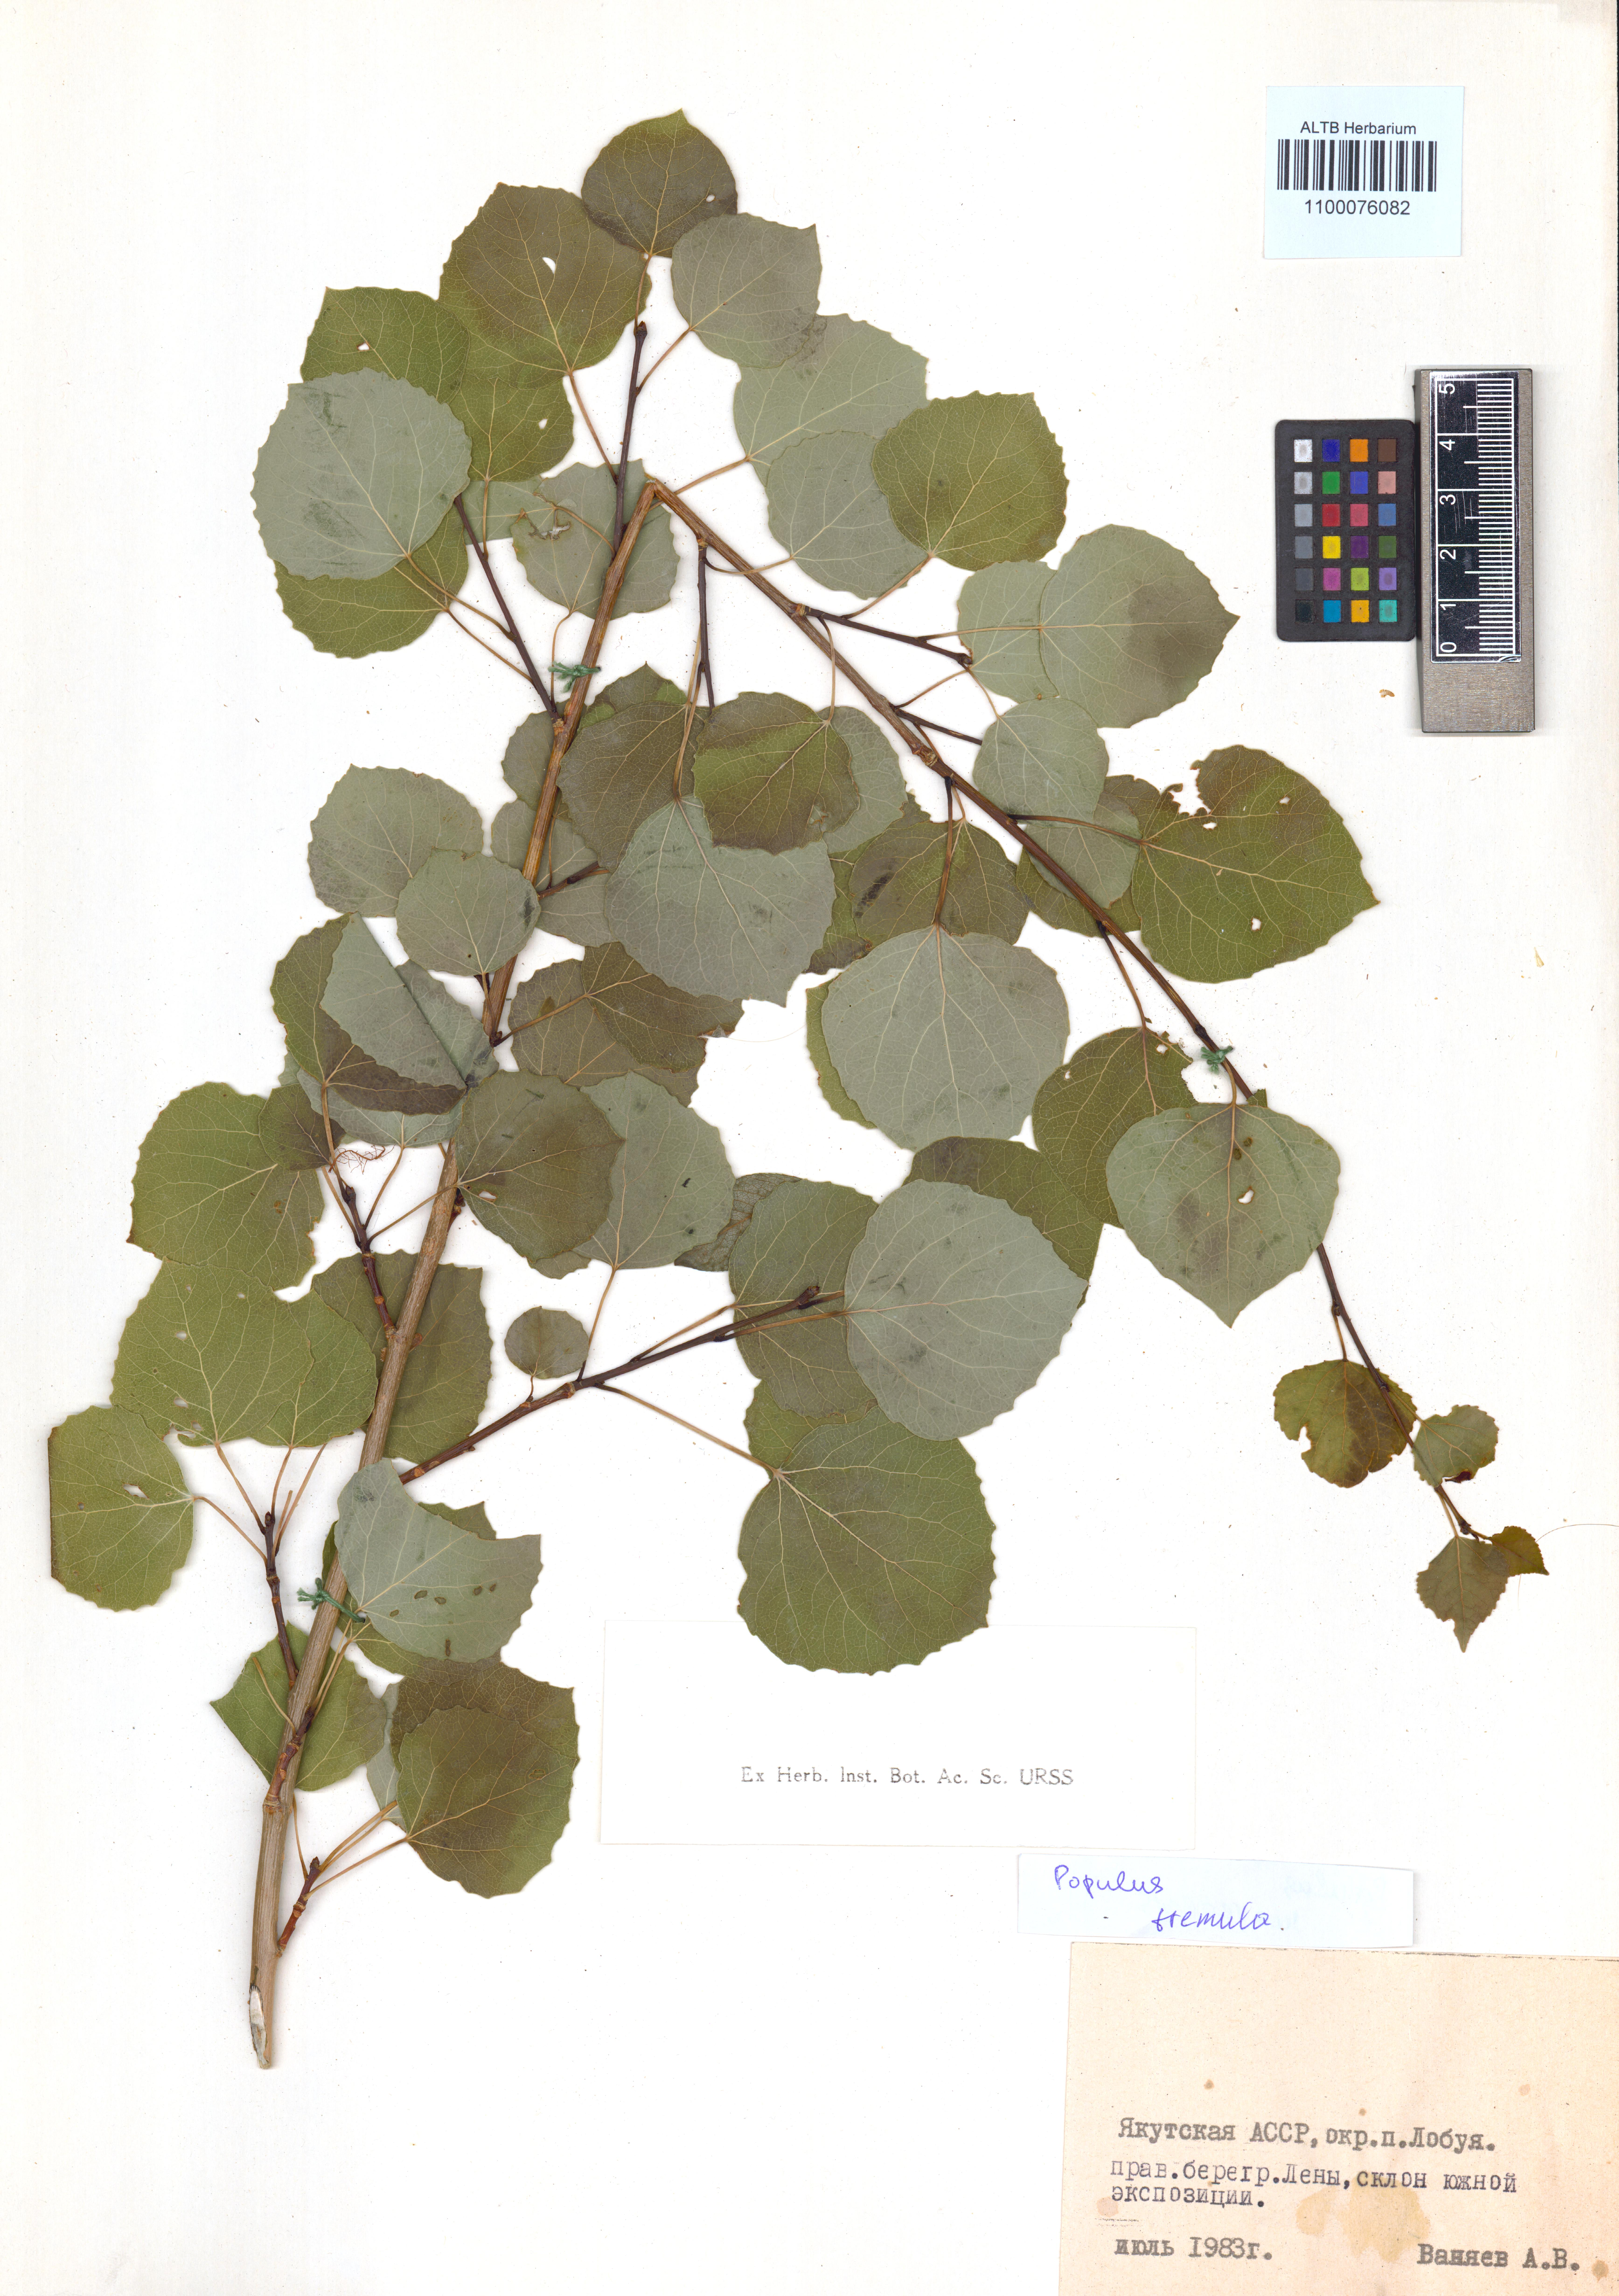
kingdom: Plantae
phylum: Tracheophyta
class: Magnoliopsida
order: Malpighiales
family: Salicaceae
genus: Populus
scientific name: Populus tremula
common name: European aspen
